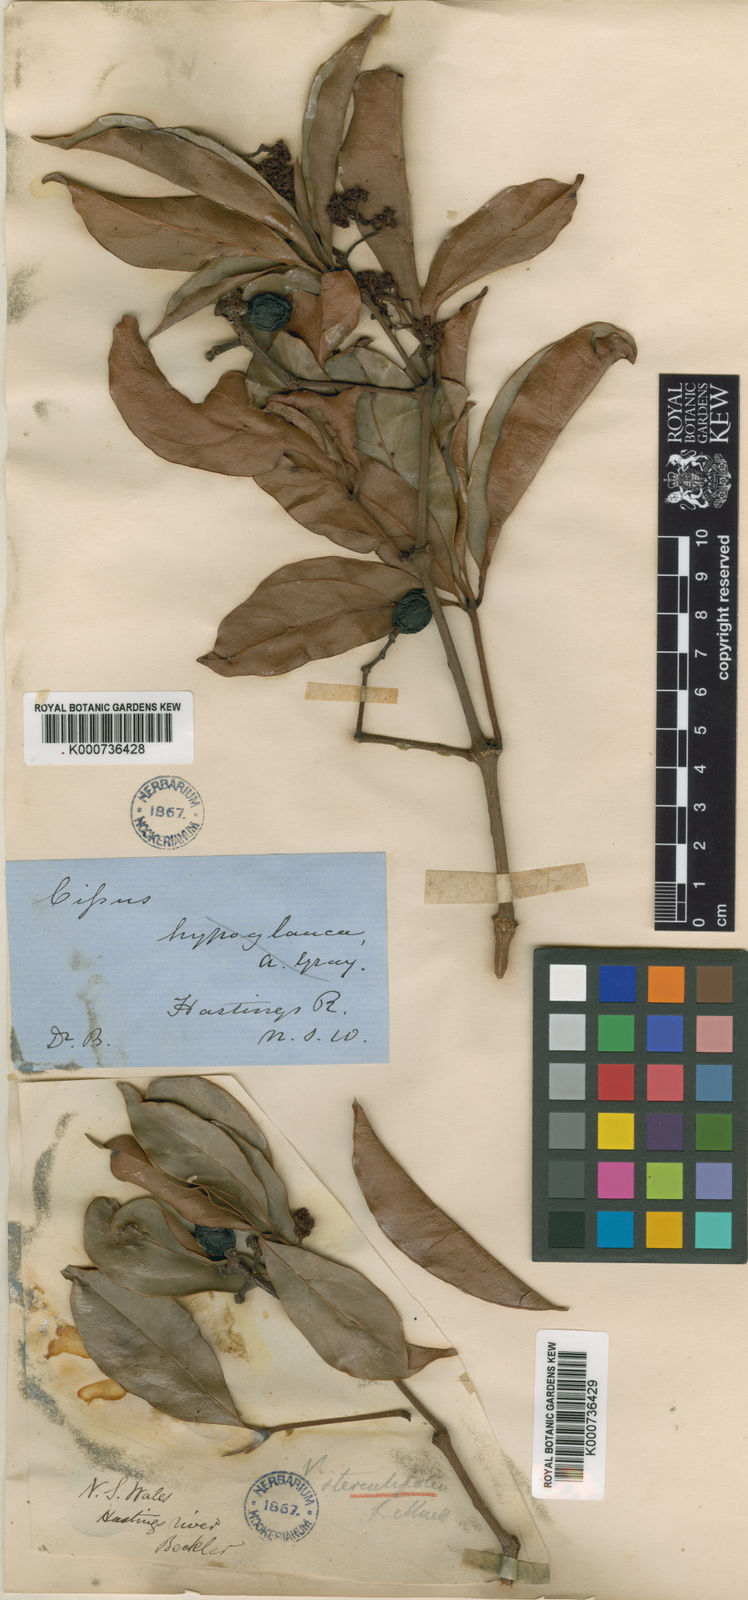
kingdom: Plantae
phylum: Tracheophyta
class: Magnoliopsida
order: Vitales
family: Vitaceae
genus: Nothocissus
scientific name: Nothocissus sterculiifolia
